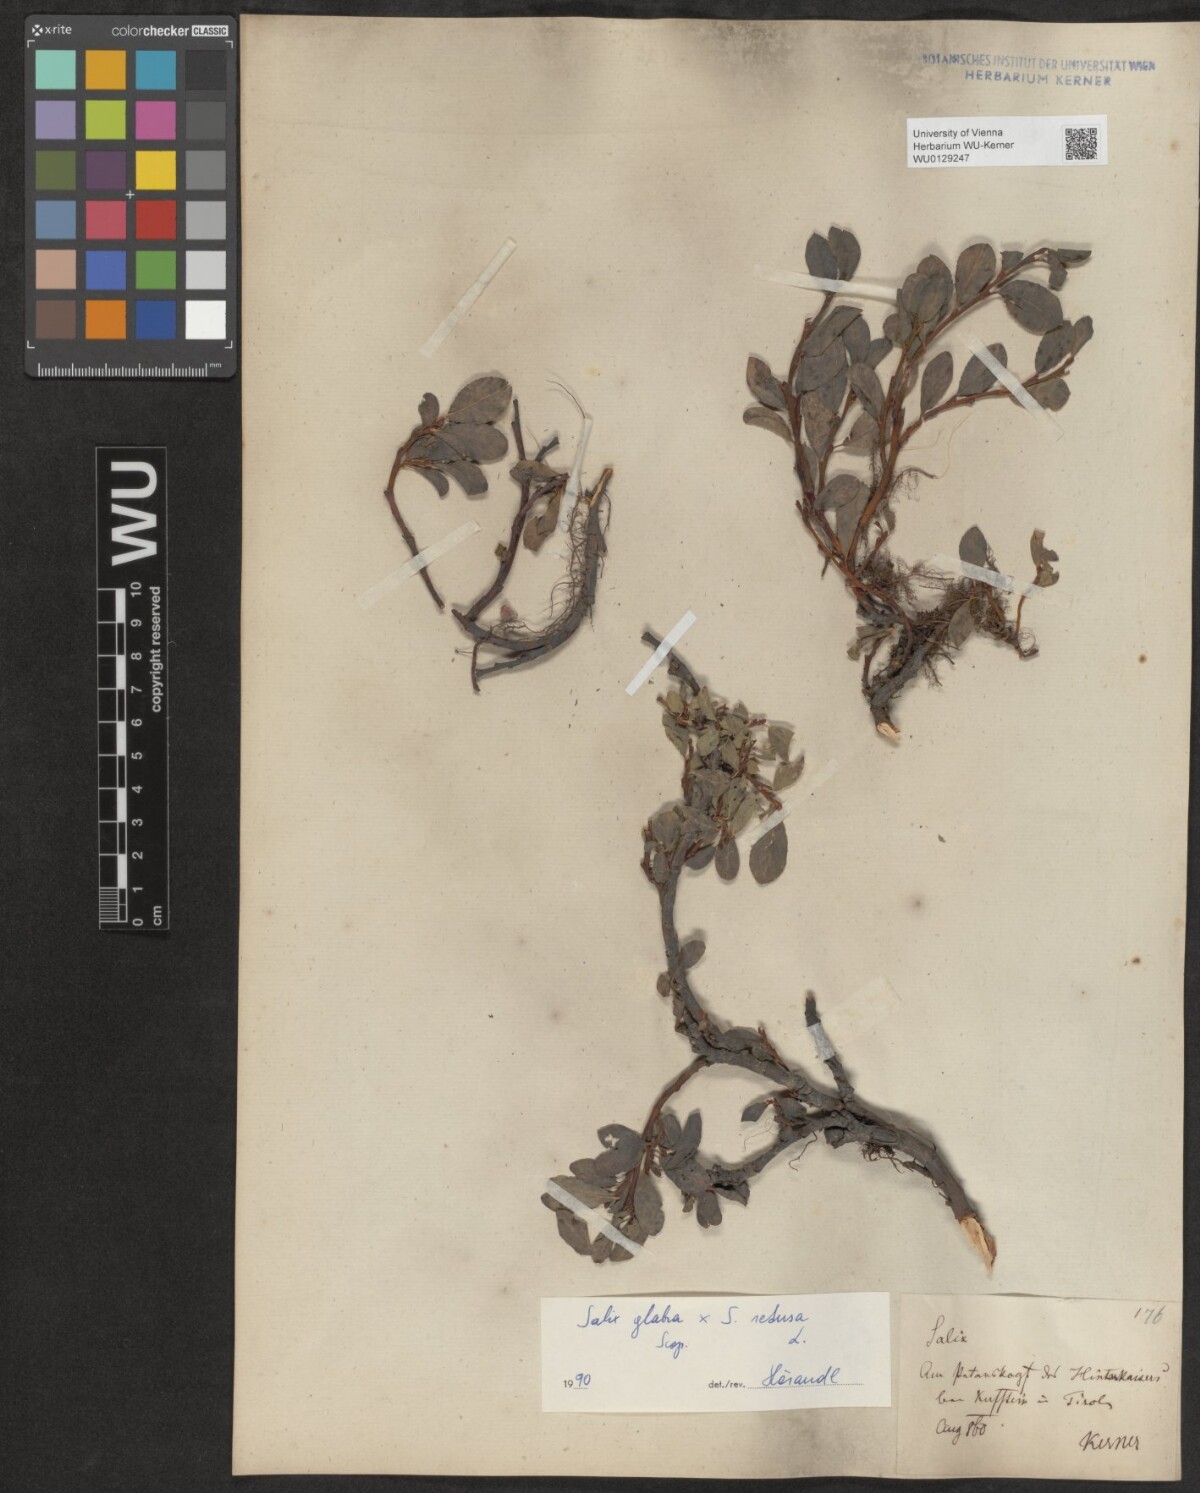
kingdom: Plantae
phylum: Tracheophyta
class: Magnoliopsida
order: Malpighiales
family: Salicaceae
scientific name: Salicaceae
